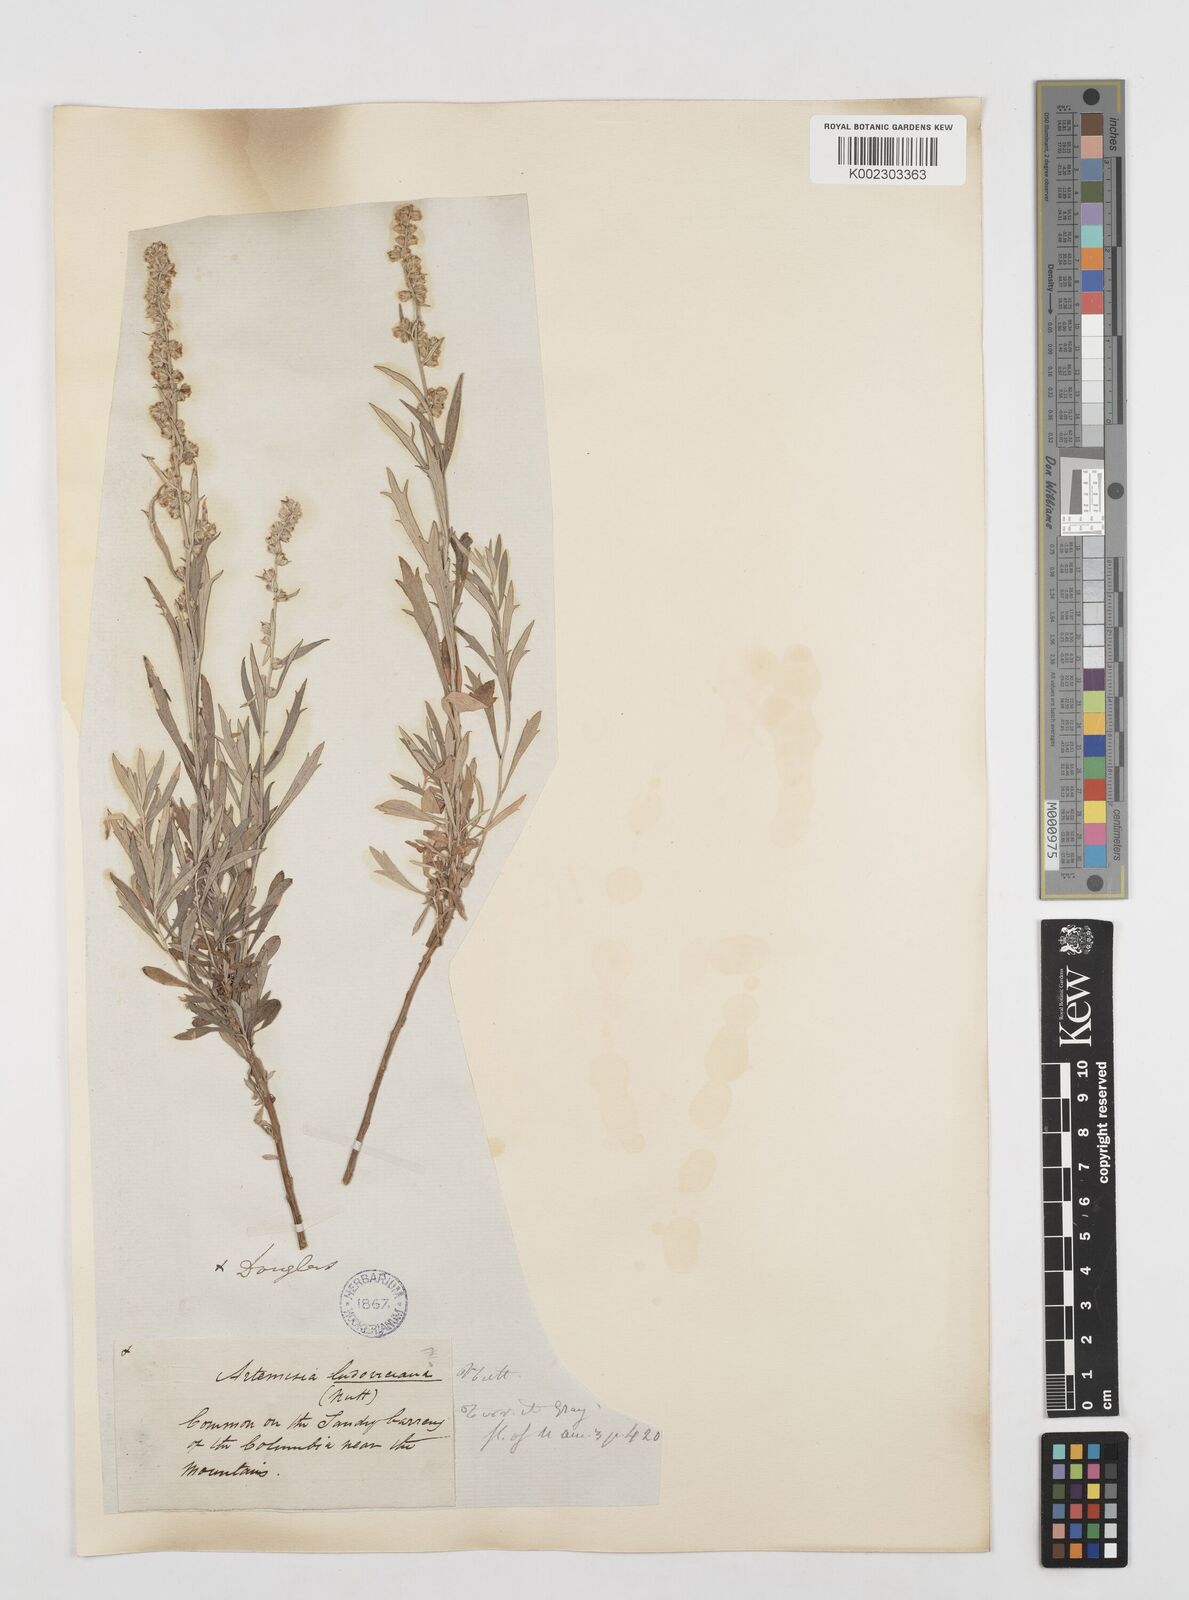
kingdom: Plantae
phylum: Tracheophyta
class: Magnoliopsida
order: Asterales
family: Asteraceae
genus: Artemisia
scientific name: Artemisia
